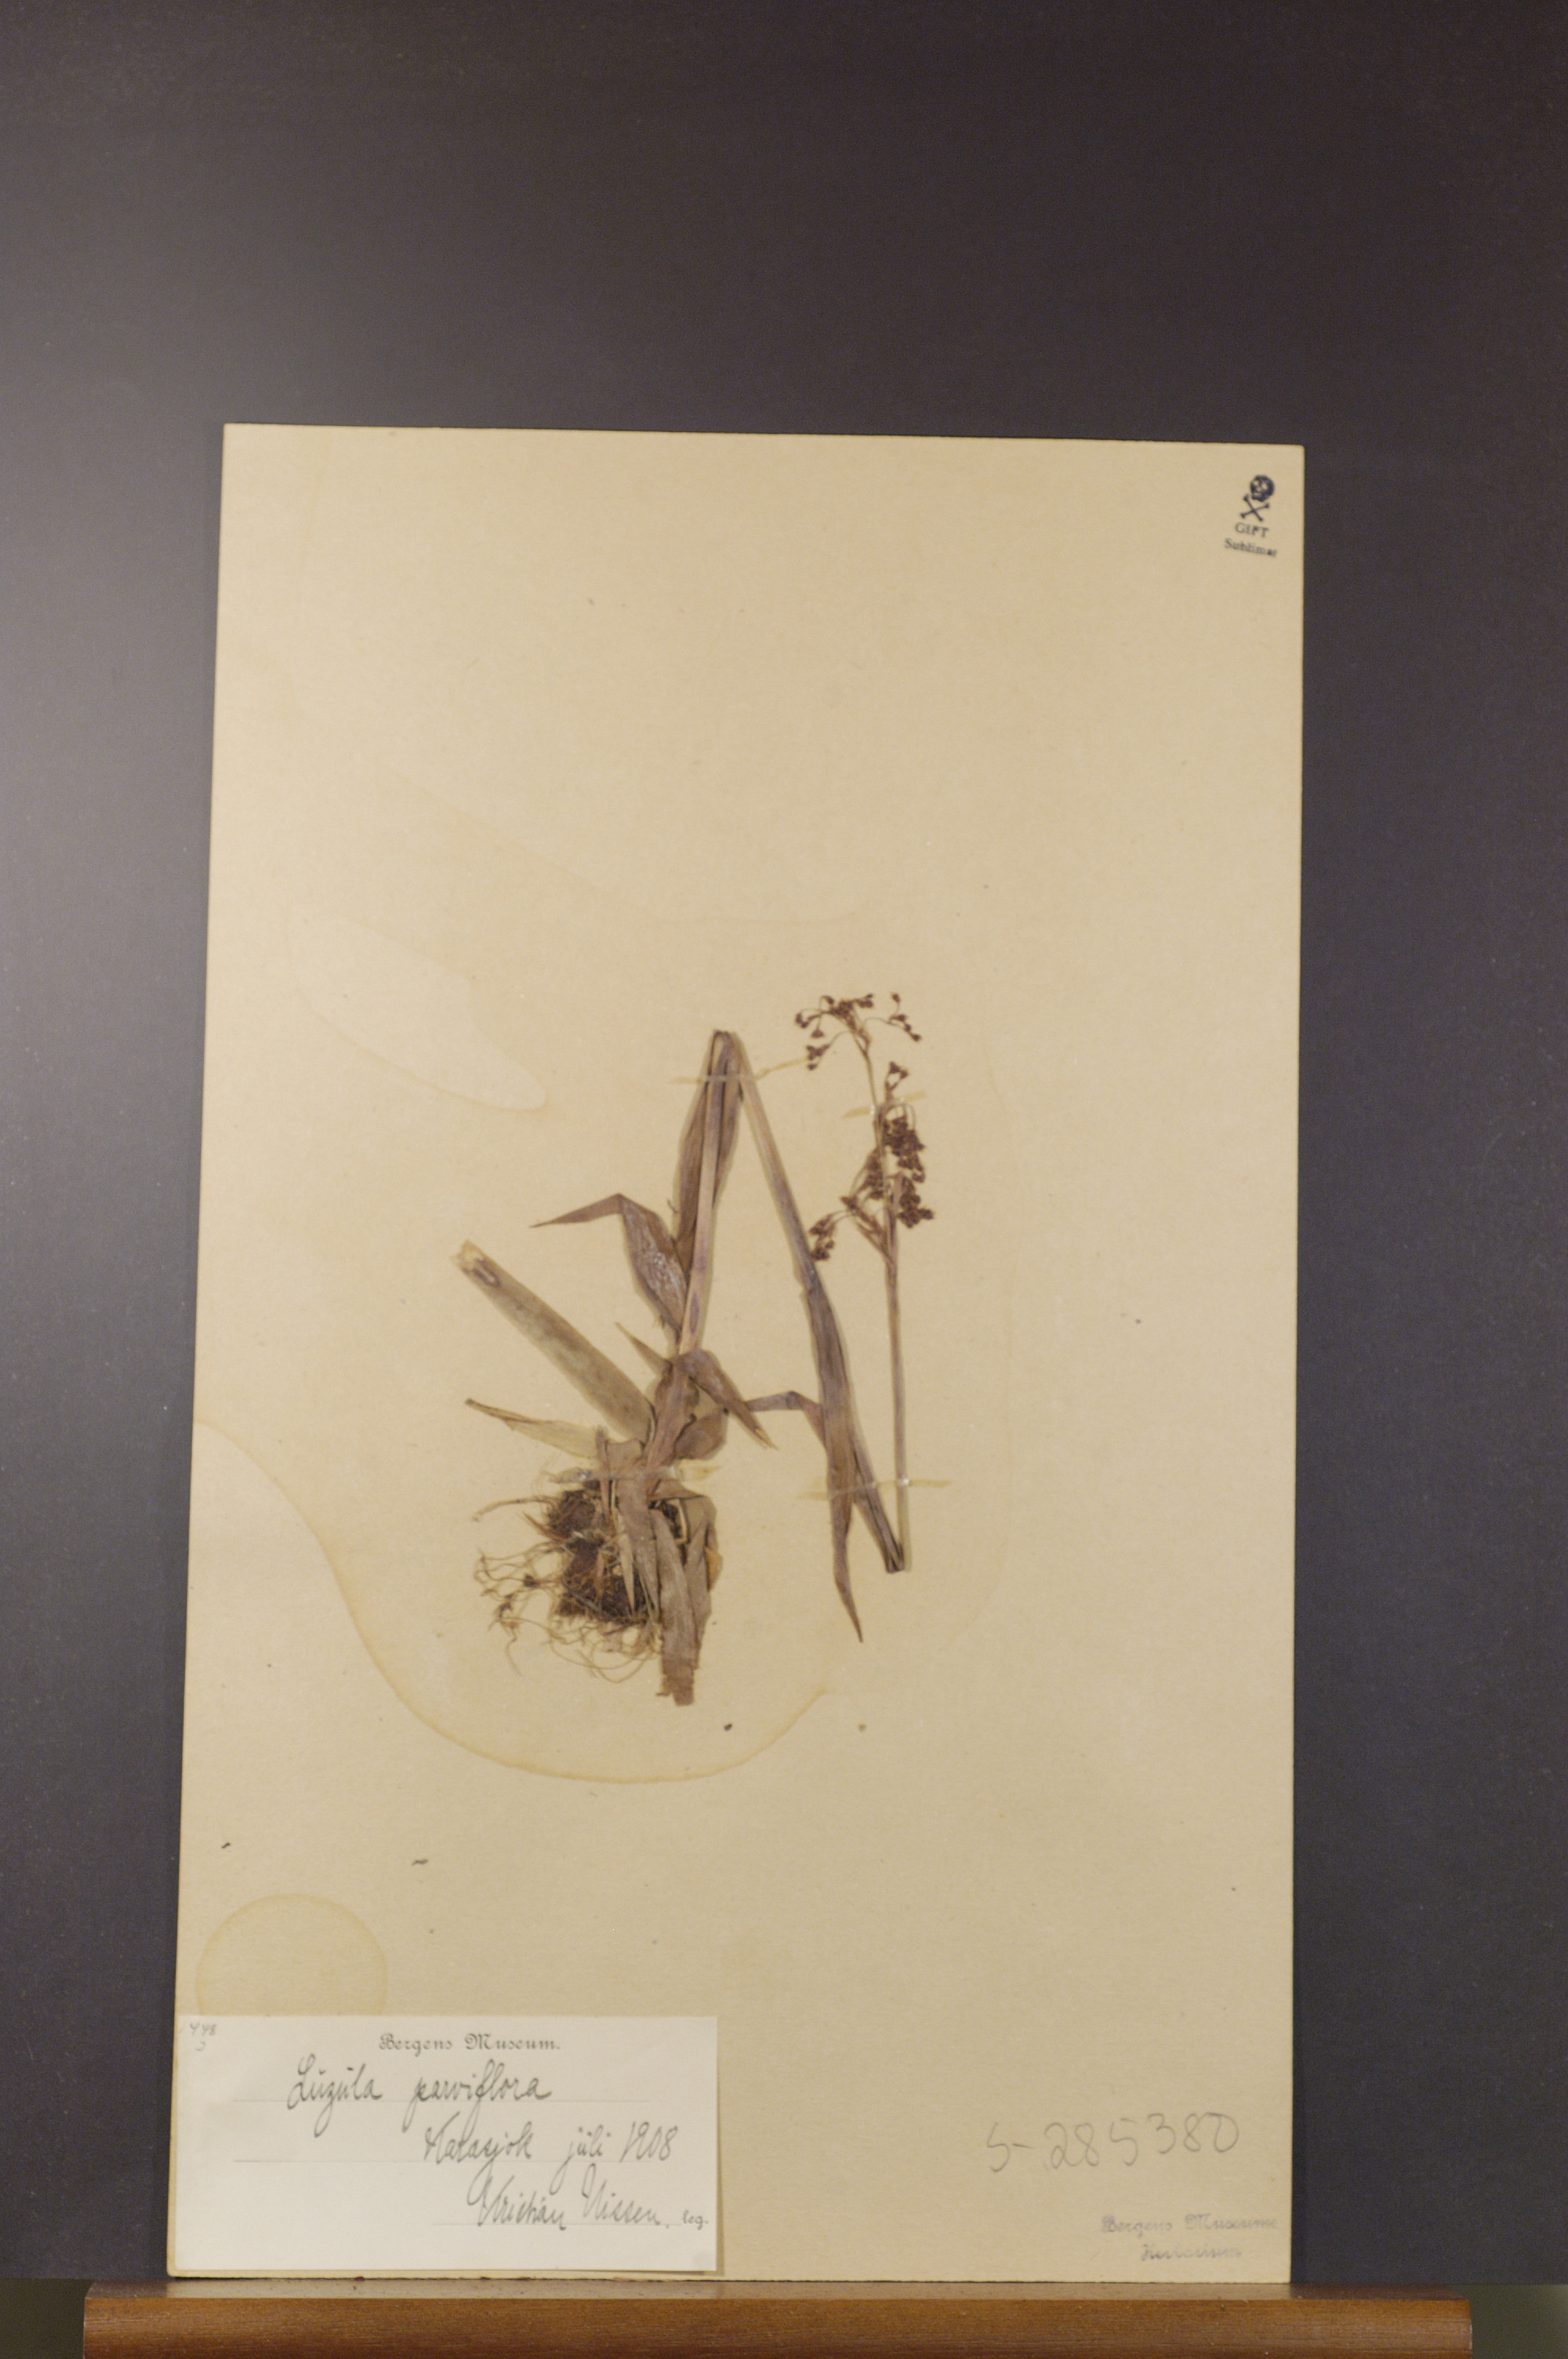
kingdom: Plantae
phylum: Tracheophyta
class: Liliopsida
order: Poales
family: Juncaceae
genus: Luzula
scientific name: Luzula parviflora
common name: Millet woodrush
